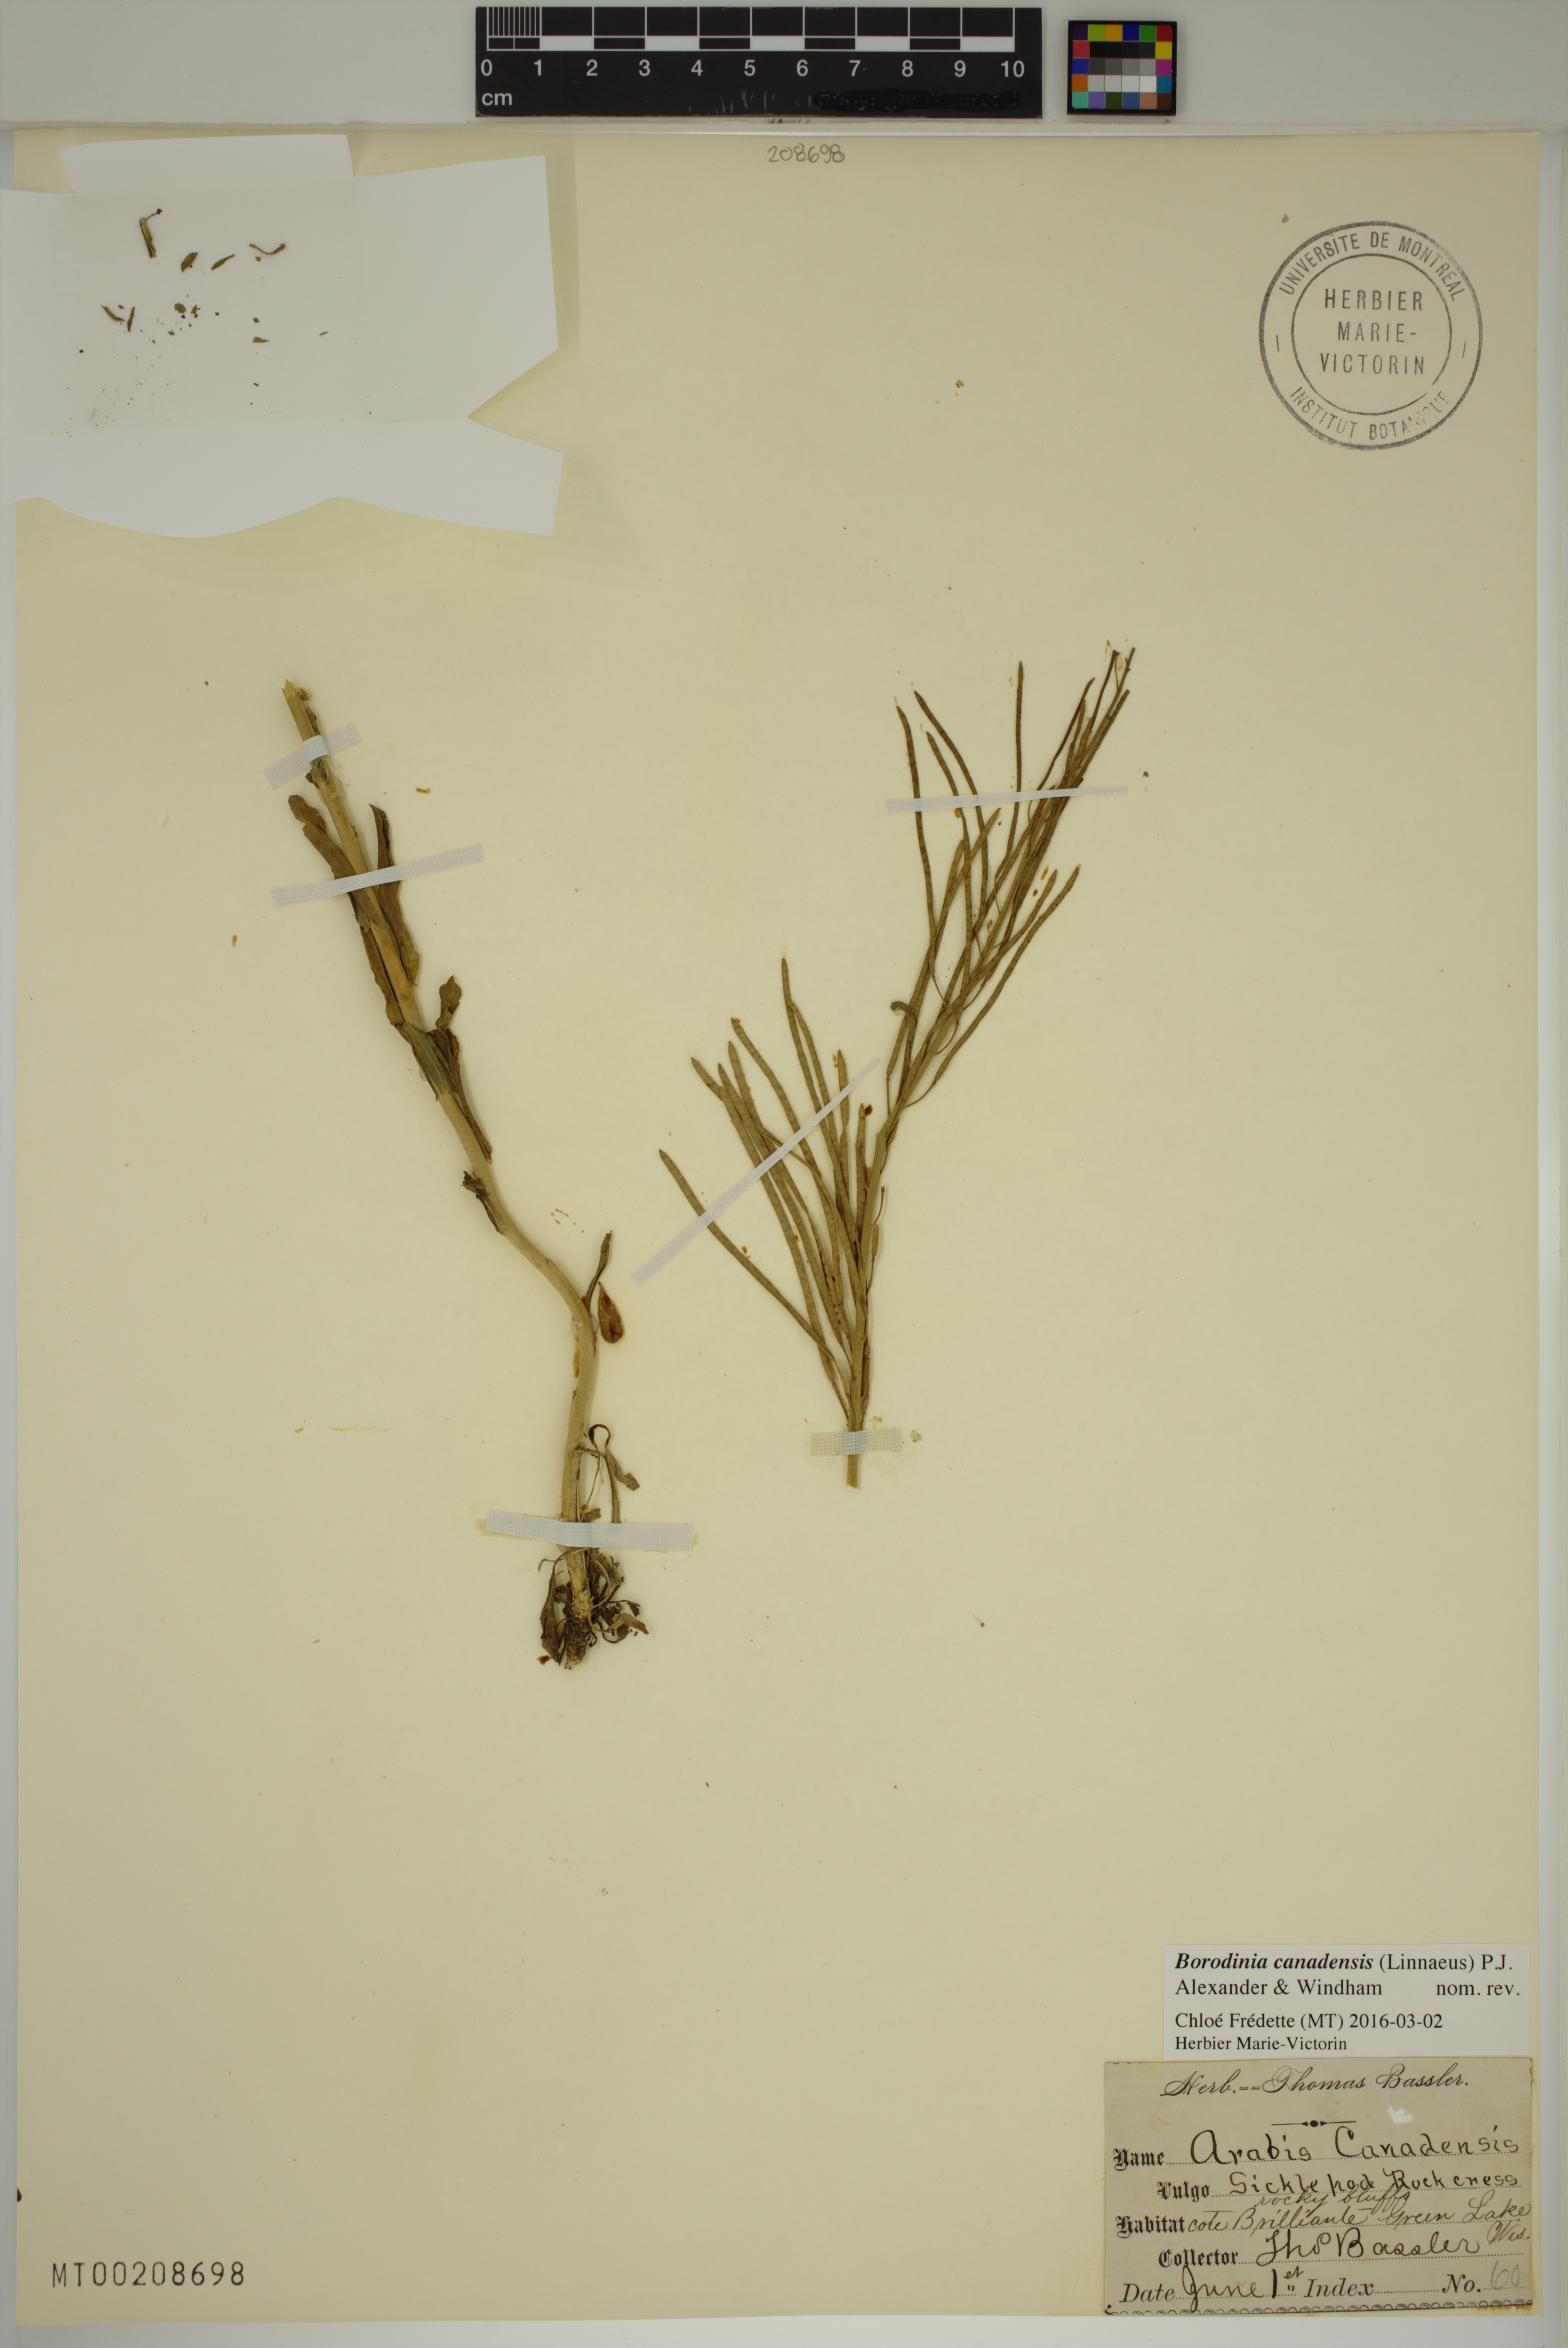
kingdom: Plantae
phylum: Tracheophyta
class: Magnoliopsida
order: Brassicales
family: Brassicaceae
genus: Borodinia
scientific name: Borodinia canadensis
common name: Sicklepod
